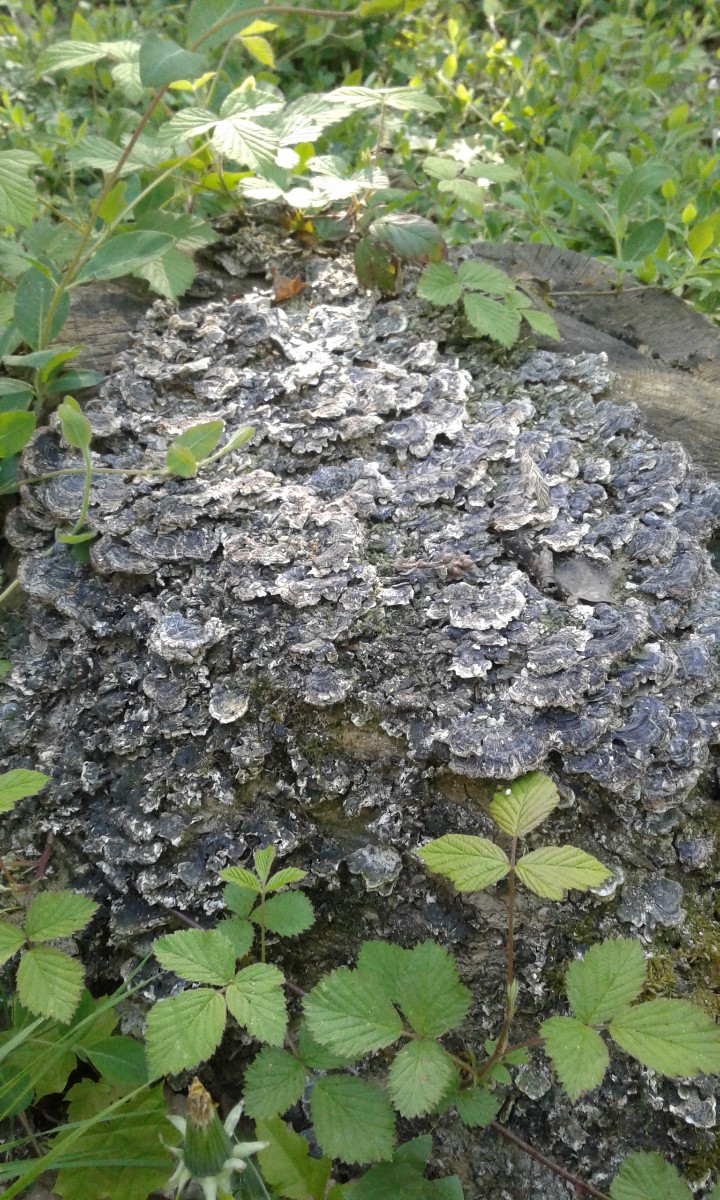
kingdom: Fungi
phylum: Basidiomycota
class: Agaricomycetes
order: Polyporales
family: Polyporaceae
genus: Trametes
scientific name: Trametes versicolor
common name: broget læderporesvamp
